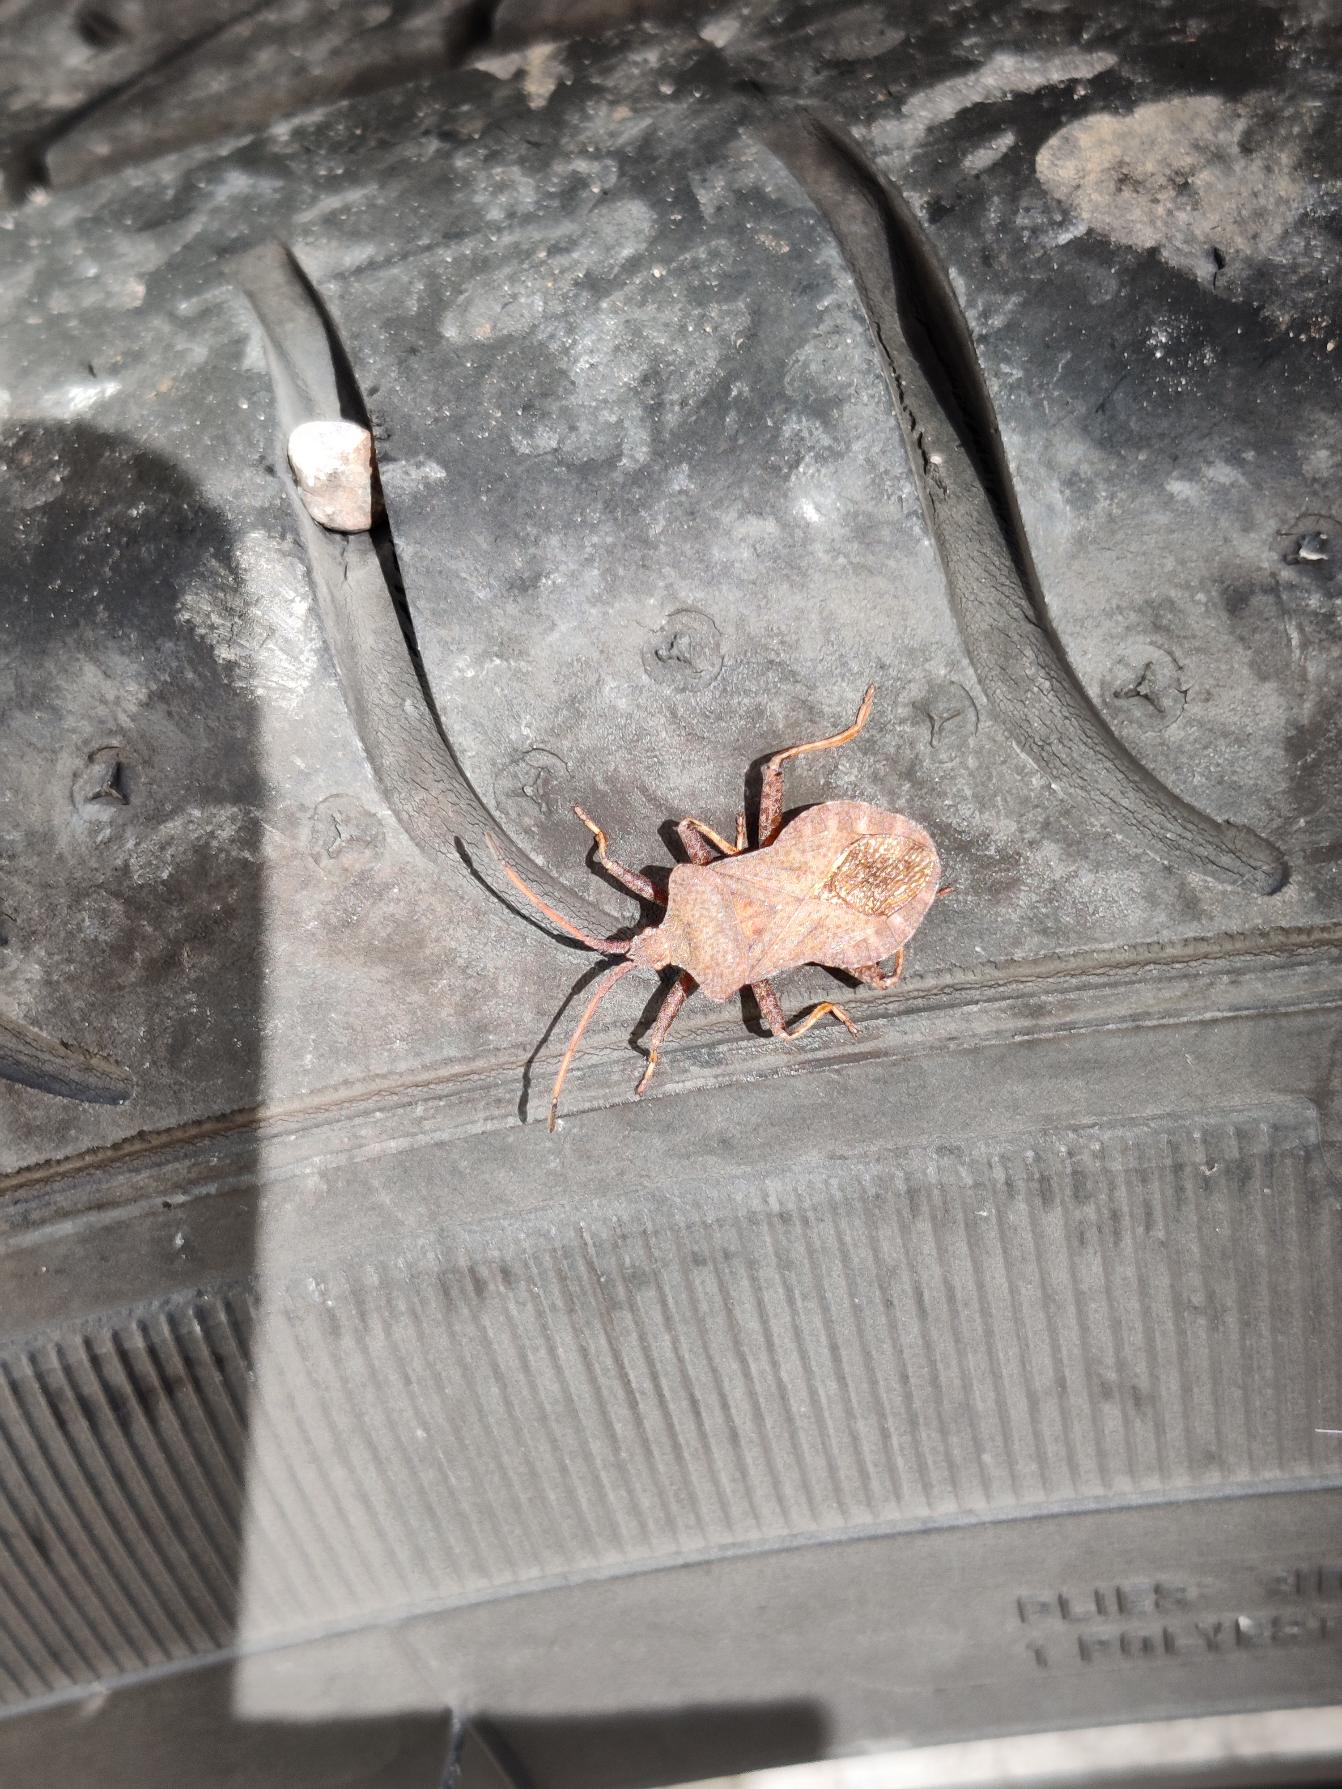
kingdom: Animalia
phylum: Arthropoda
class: Insecta
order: Hemiptera
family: Coreidae
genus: Coreus
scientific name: Coreus marginatus
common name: Skræppetæge
